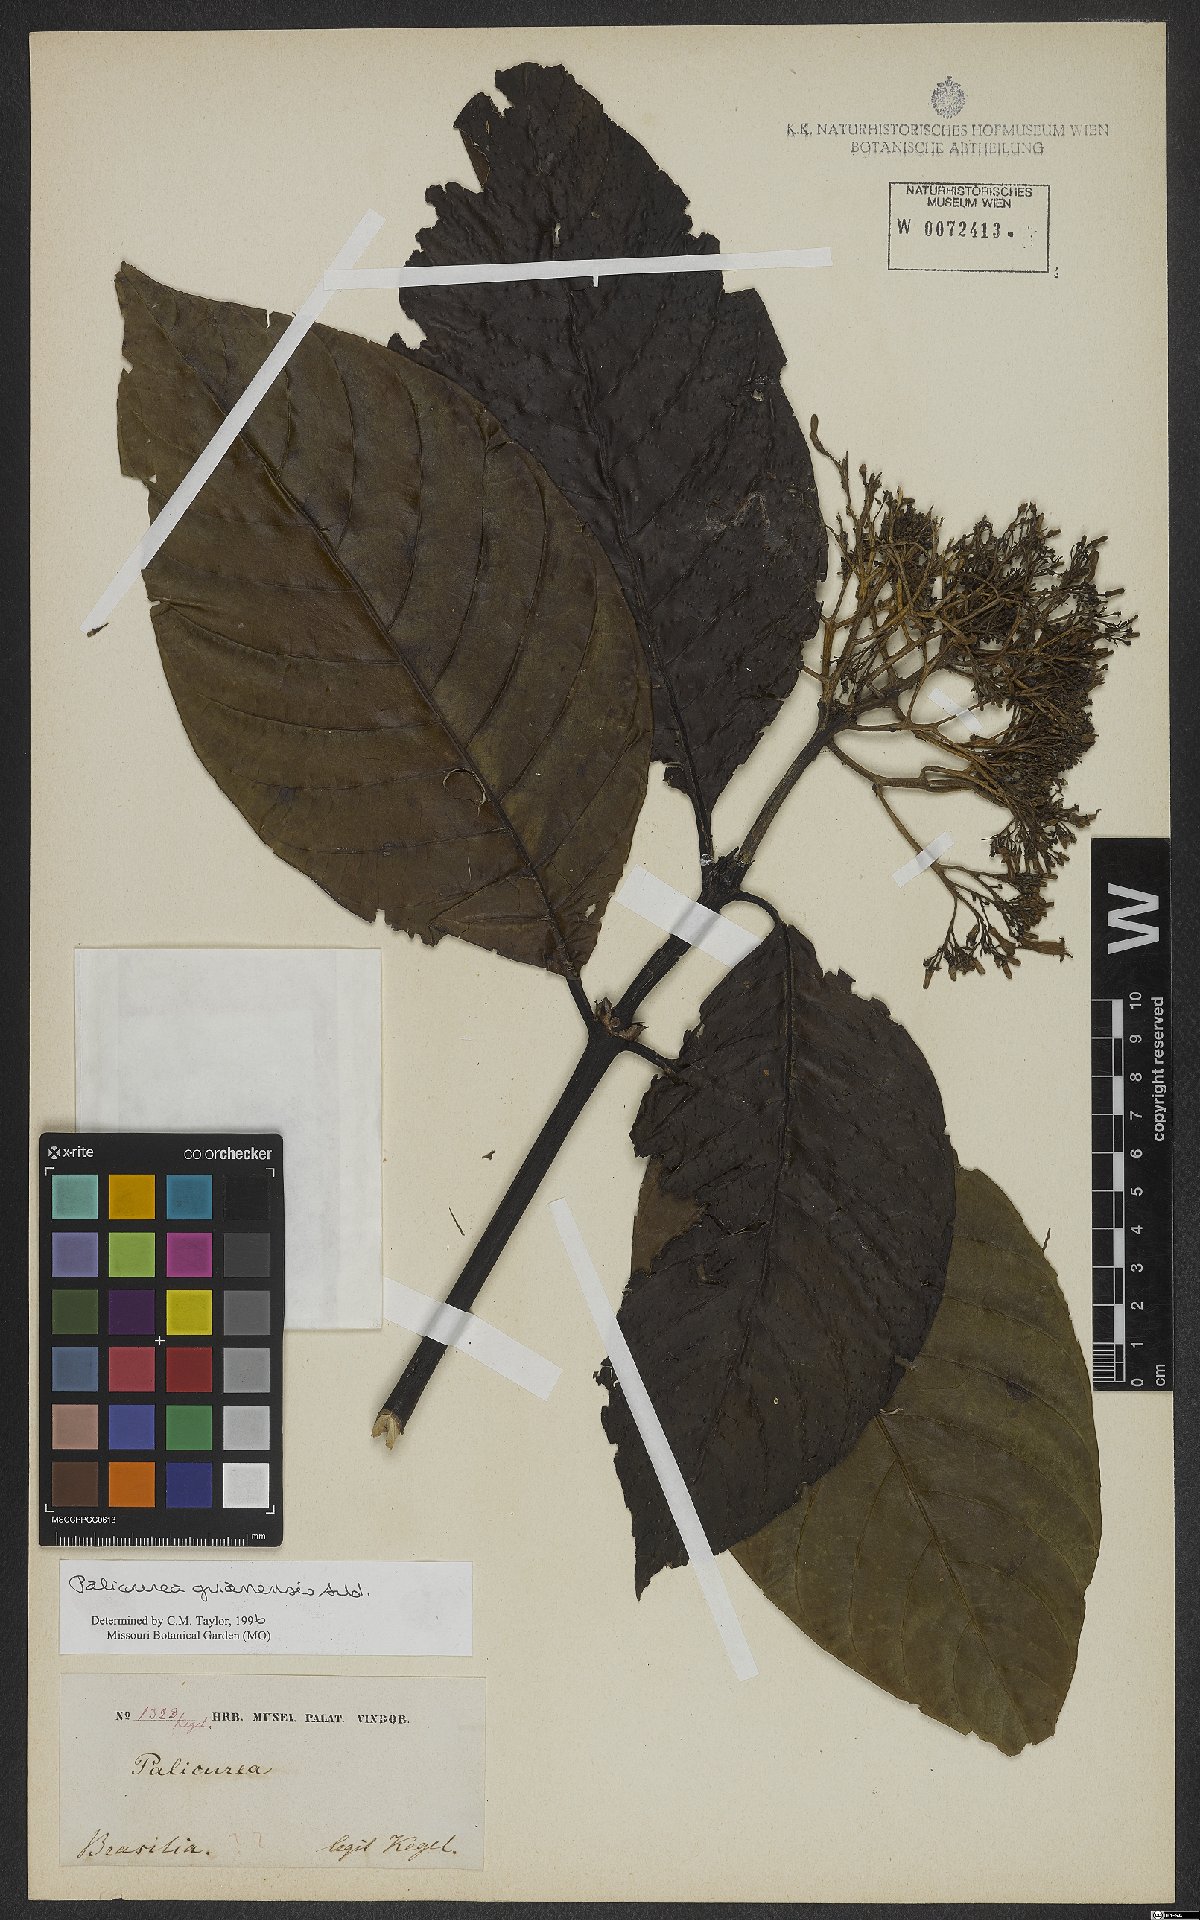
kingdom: Plantae
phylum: Tracheophyta
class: Magnoliopsida
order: Gentianales
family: Rubiaceae
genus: Palicourea
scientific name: Palicourea guianensis
